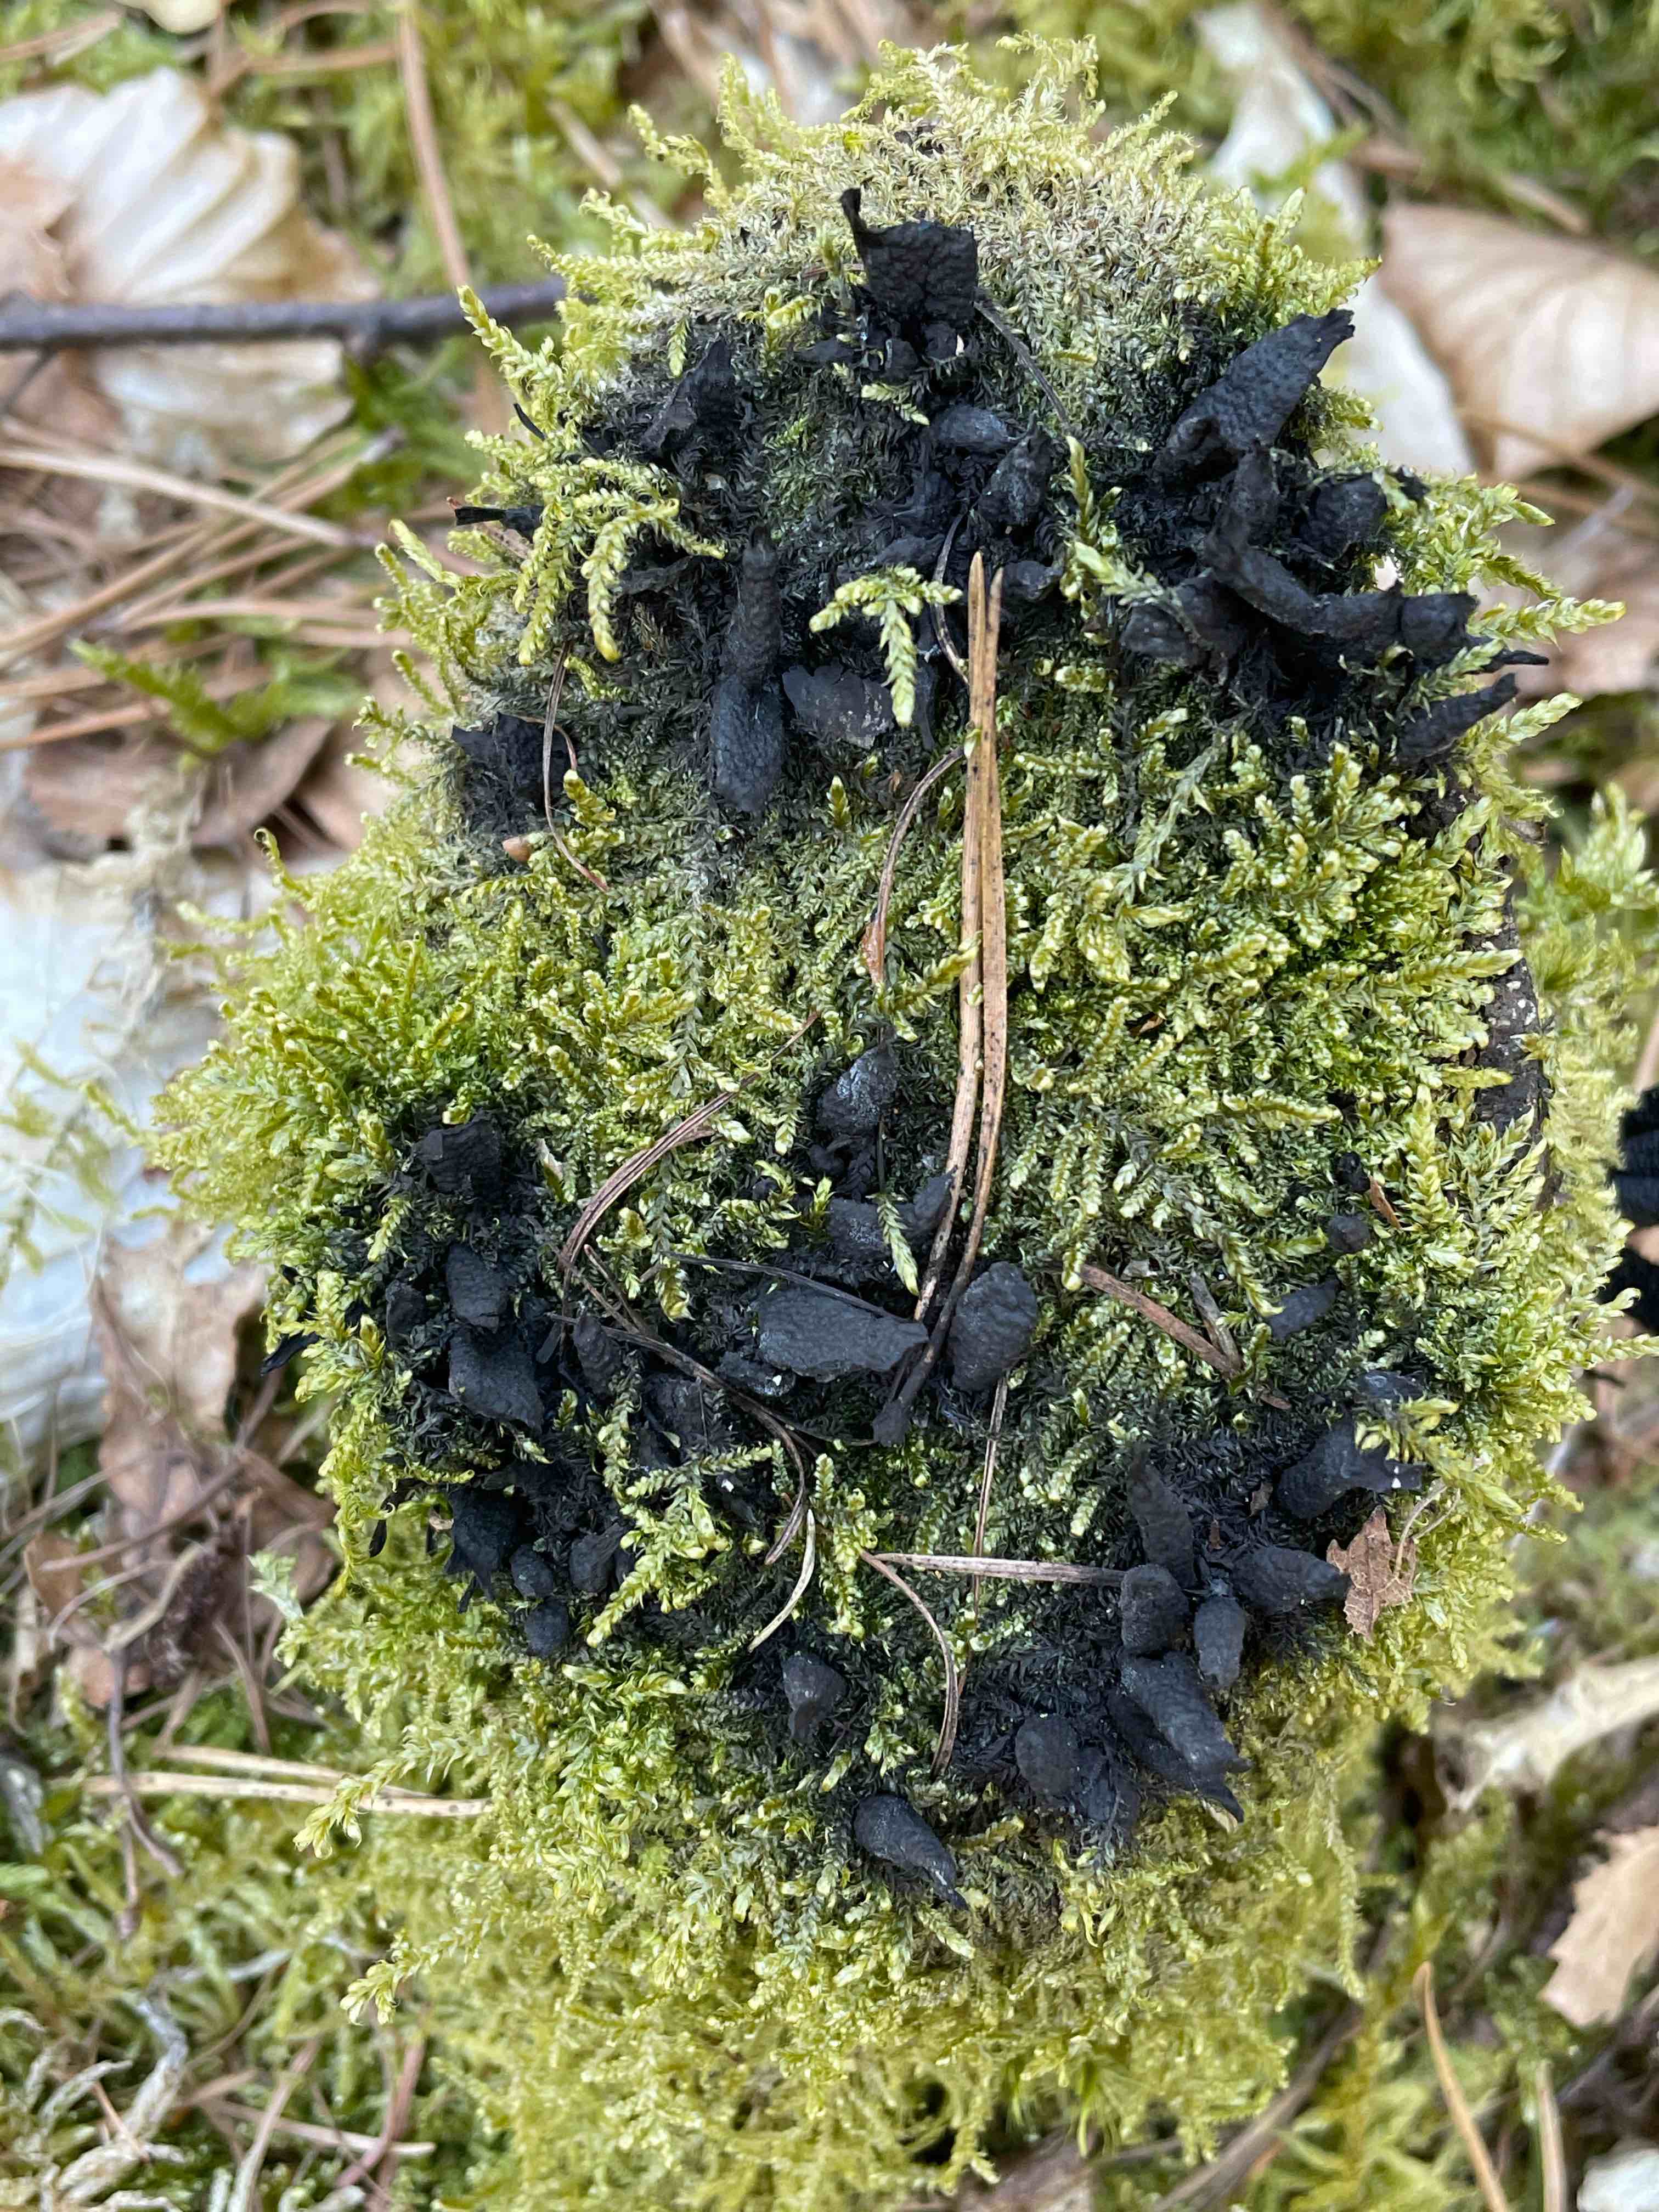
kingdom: Fungi
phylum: Ascomycota
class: Sordariomycetes
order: Xylariales
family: Xylariaceae
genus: Xylaria
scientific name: Xylaria hypoxylon
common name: grenet stødsvamp
